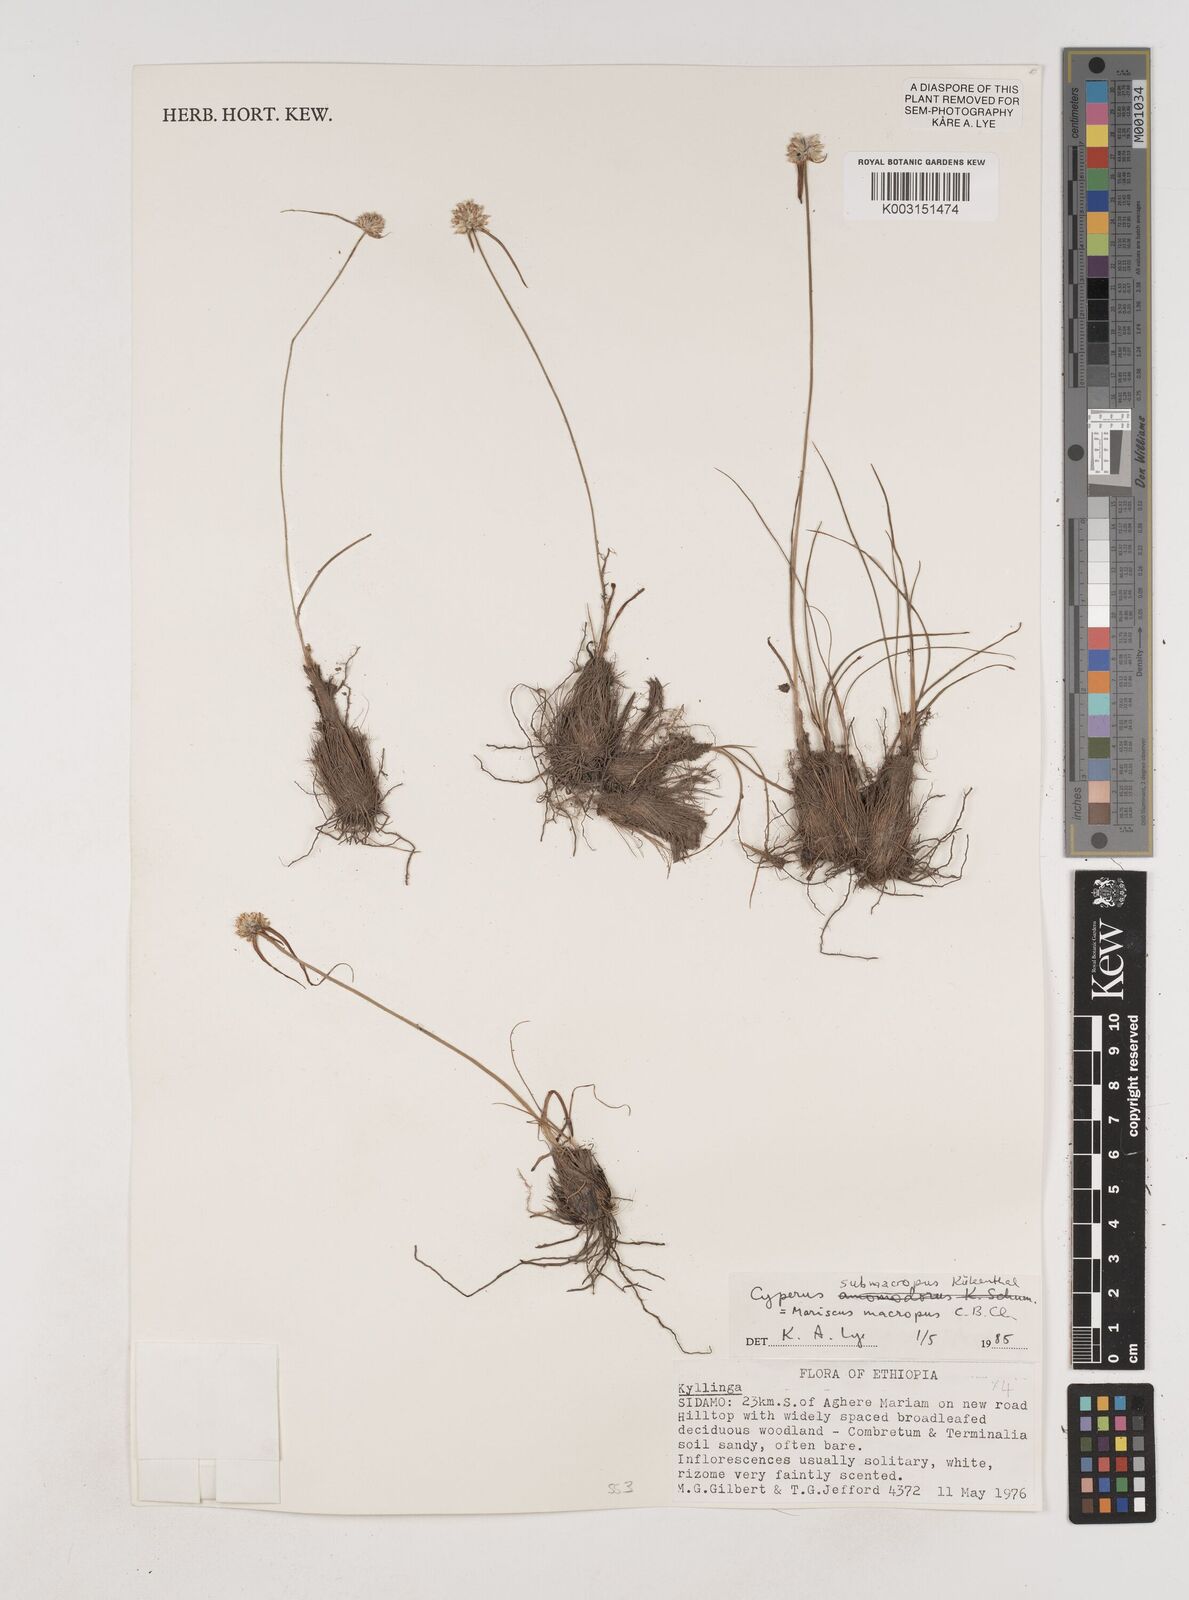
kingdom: Plantae
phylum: Tracheophyta
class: Liliopsida
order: Poales
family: Cyperaceae
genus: Cyperus
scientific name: Cyperus mollipes
